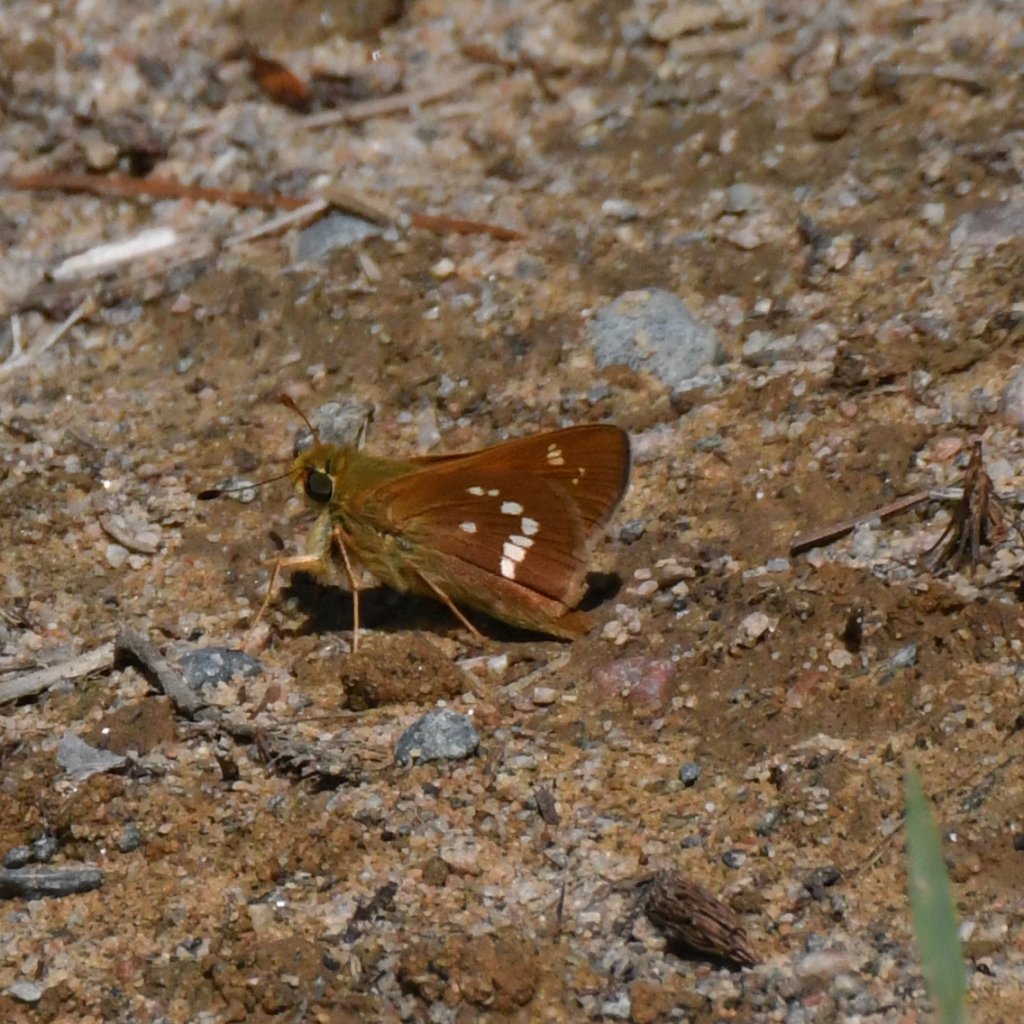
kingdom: Animalia
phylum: Arthropoda
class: Insecta
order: Lepidoptera
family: Hesperiidae
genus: Hesperia
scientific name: Hesperia leonardus
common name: Leonard's Skipper
